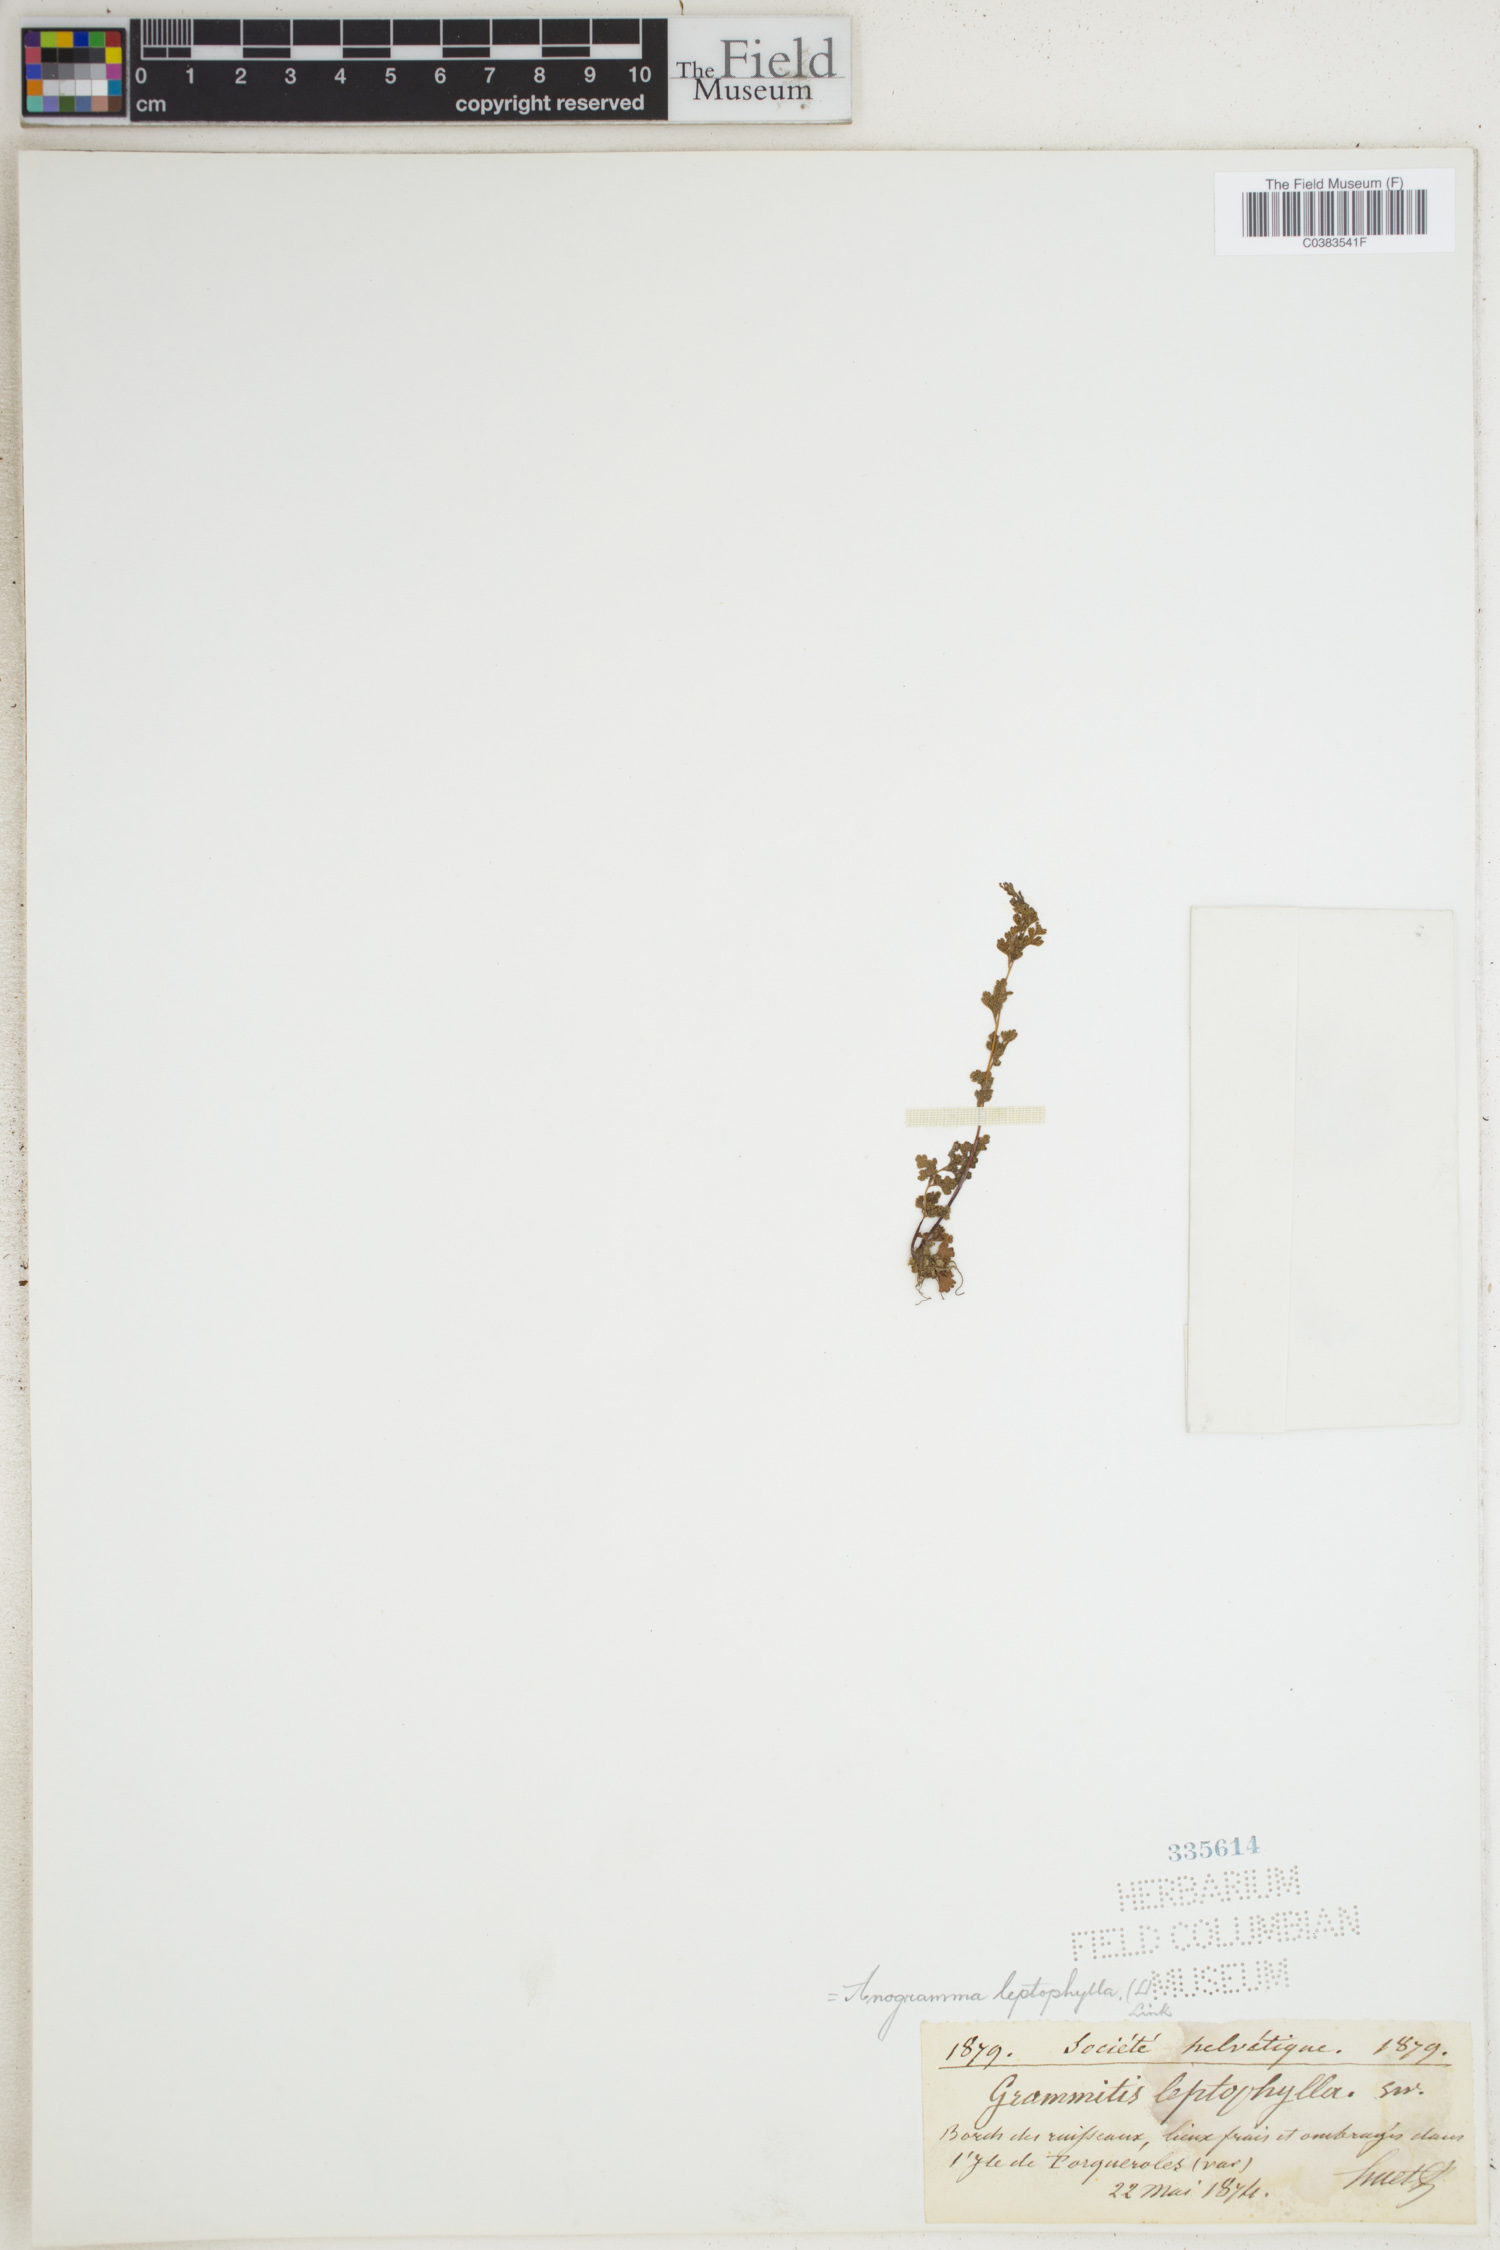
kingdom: Plantae
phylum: Tracheophyta
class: Polypodiopsida
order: Polypodiales
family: Pteridaceae
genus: Anogramma
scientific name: Anogramma leptophylla
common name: Jersey fern
